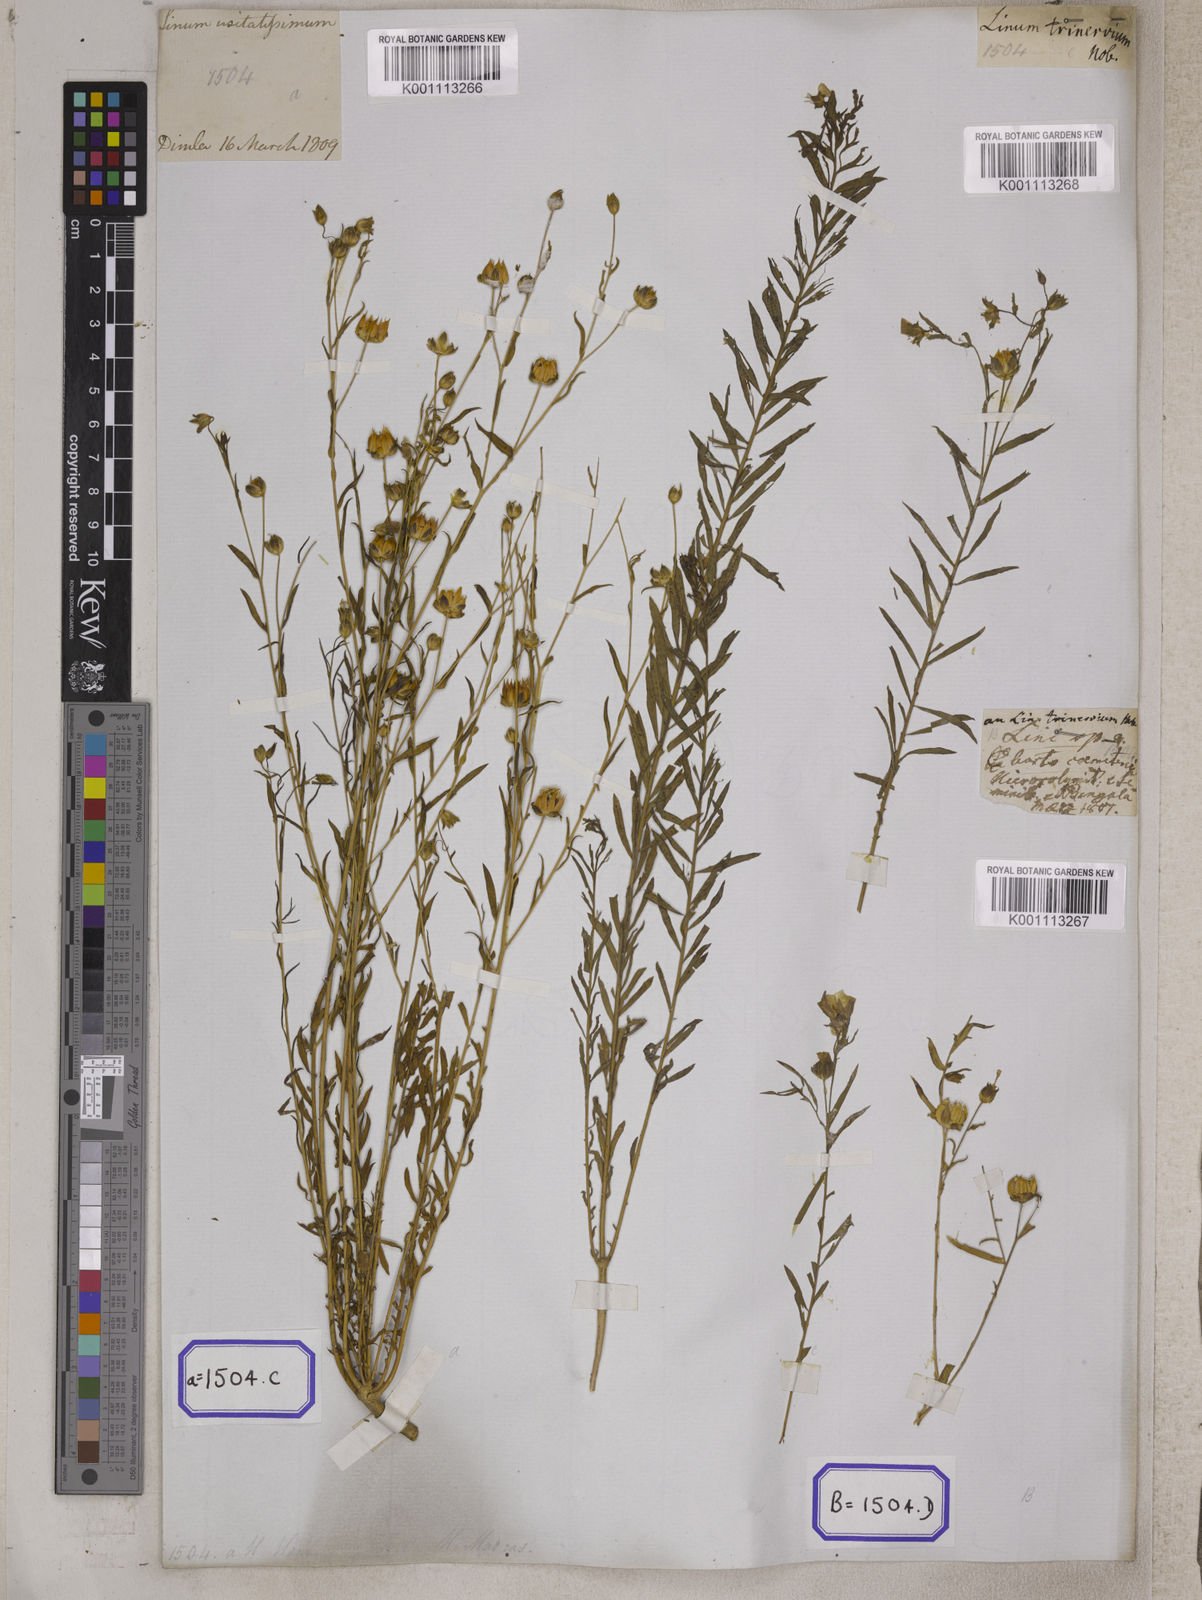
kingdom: Plantae
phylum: Tracheophyta
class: Magnoliopsida
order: Malpighiales
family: Linaceae
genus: Linum
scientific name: Linum usitatissimum
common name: Flax
